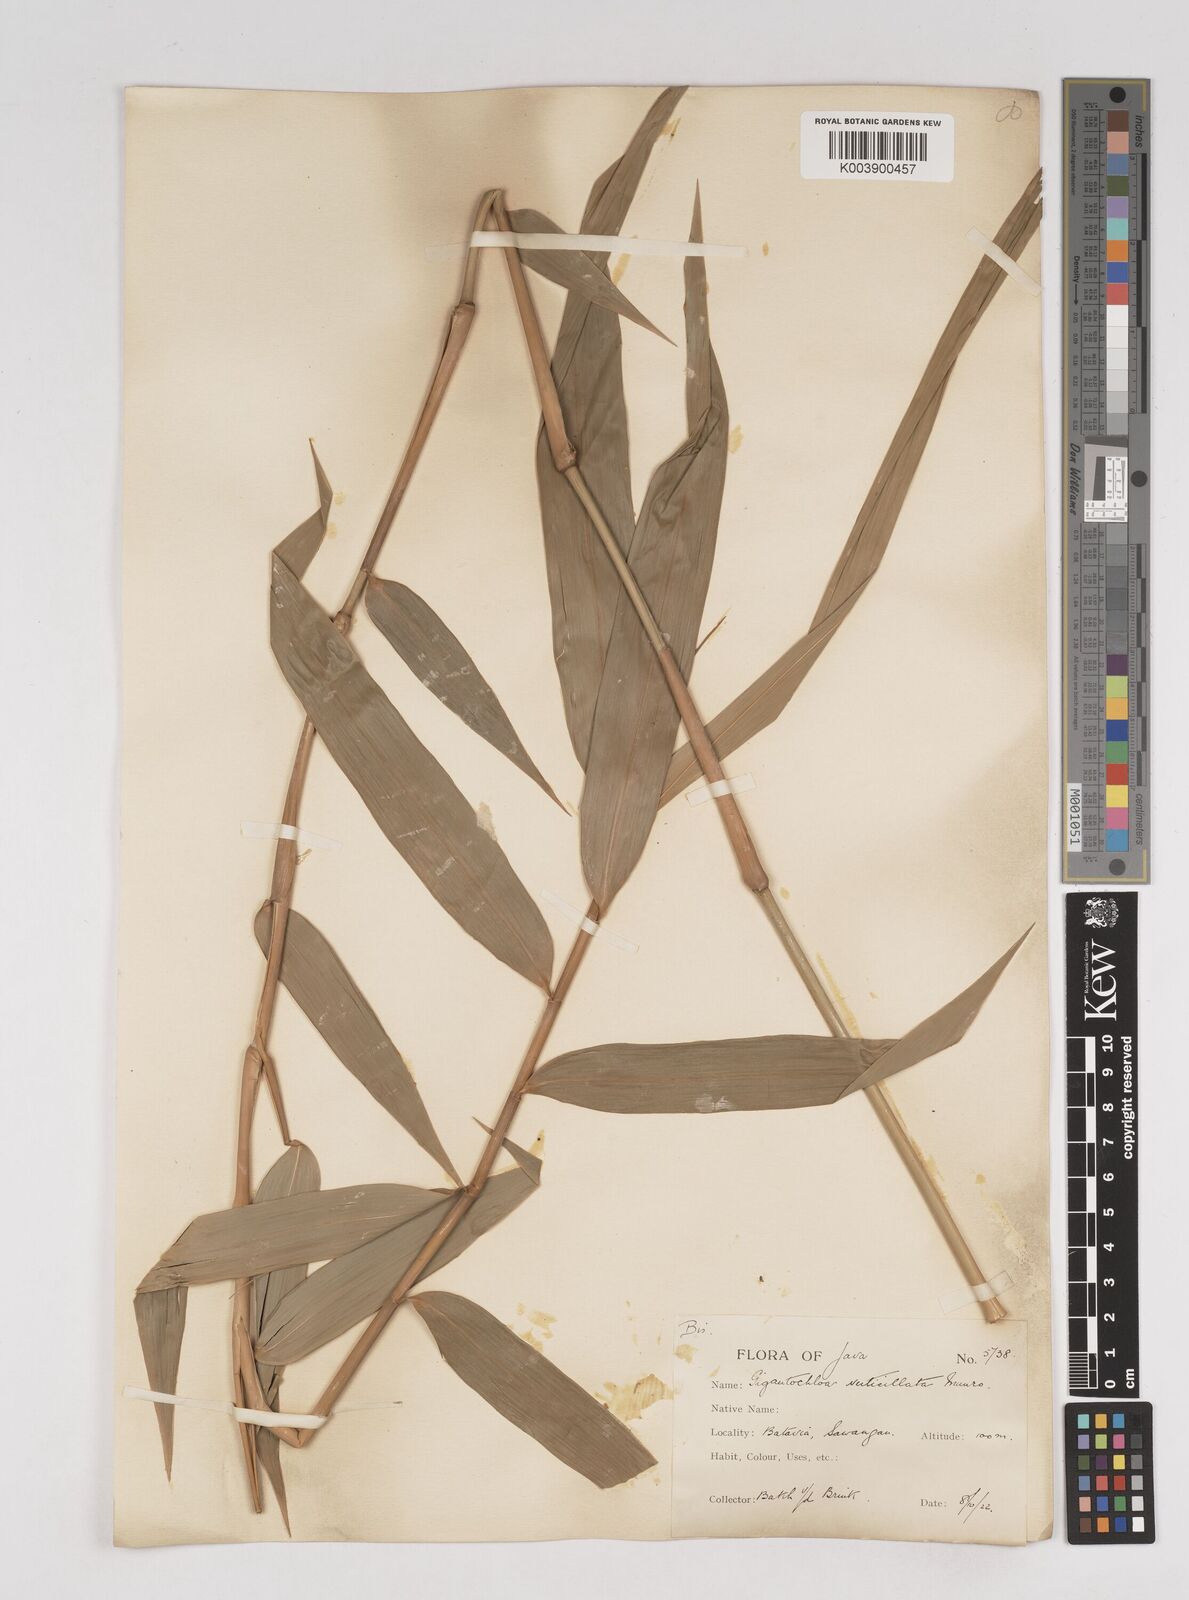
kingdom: Plantae
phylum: Tracheophyta
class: Liliopsida
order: Poales
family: Poaceae
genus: Gigantochloa
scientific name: Gigantochloa verticillata
